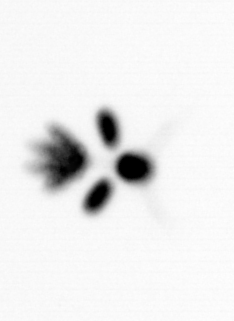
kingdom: Animalia
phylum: Arthropoda
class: Copepoda
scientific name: Copepoda
